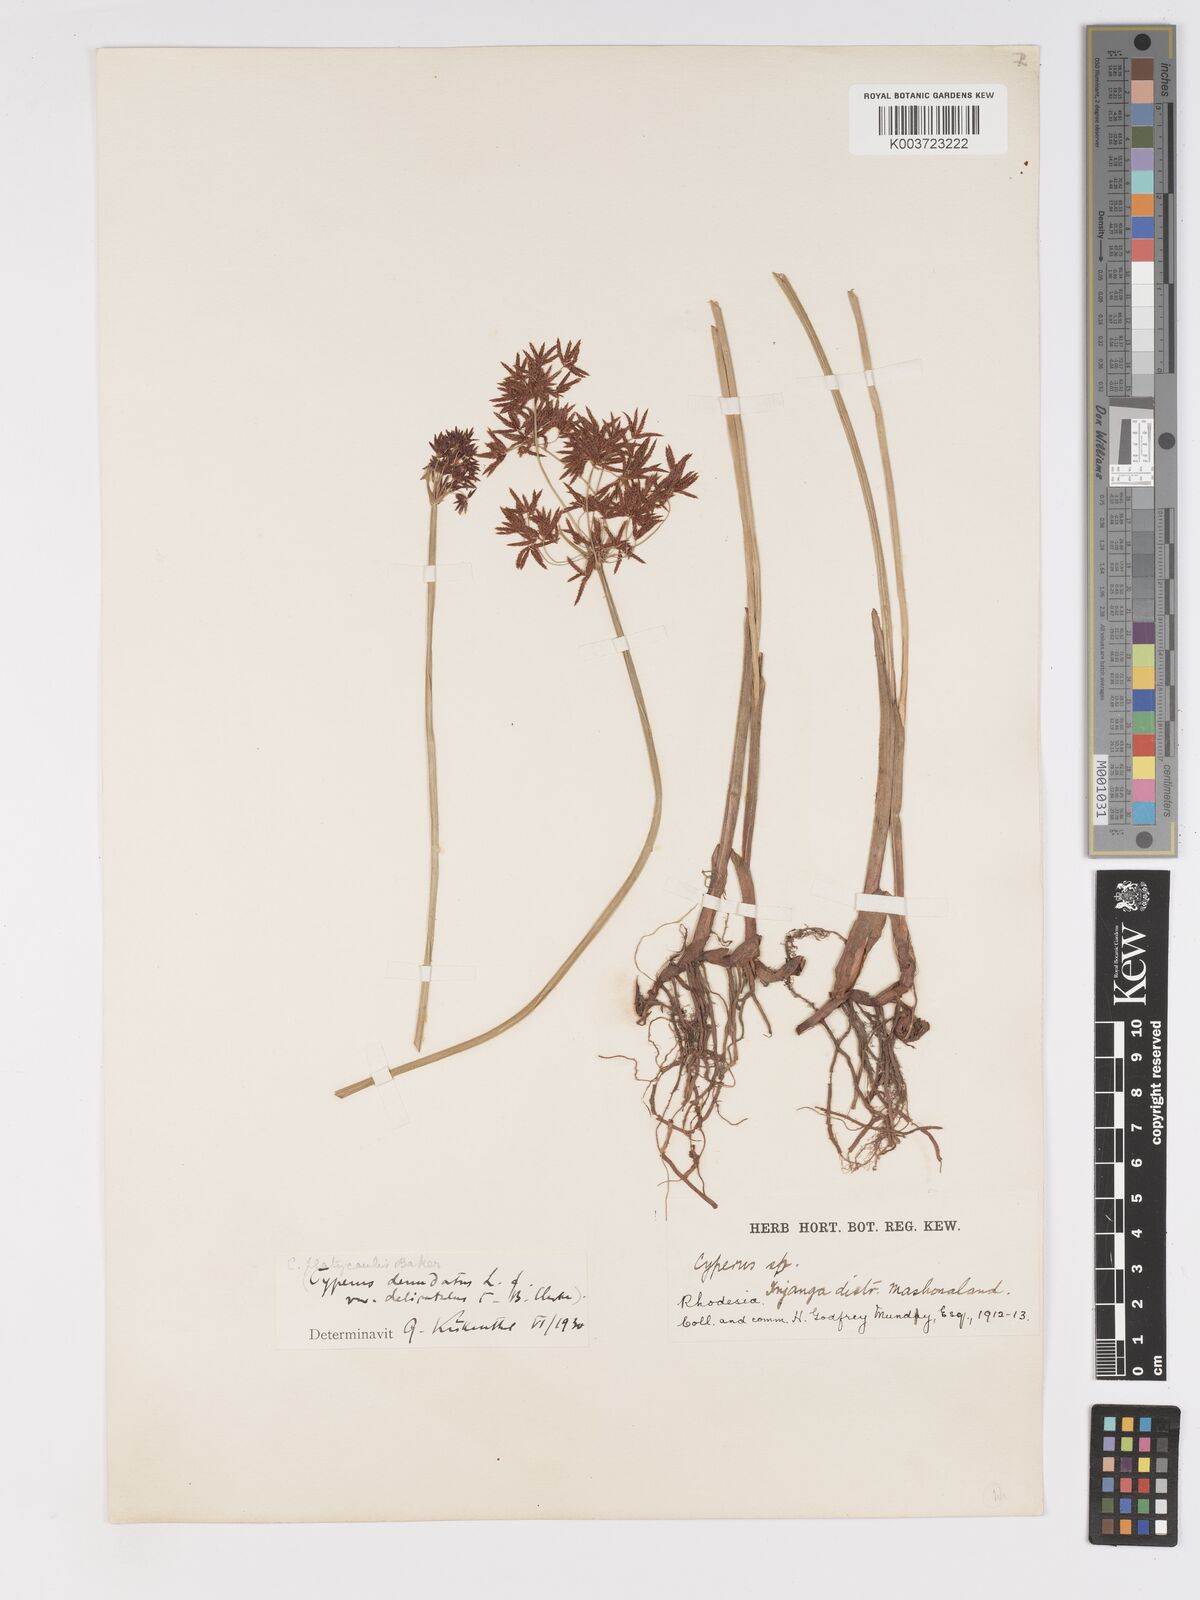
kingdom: Plantae
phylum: Tracheophyta
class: Liliopsida
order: Poales
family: Cyperaceae
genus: Cyperus
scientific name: Cyperus haspan
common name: Haspan flatsedge
